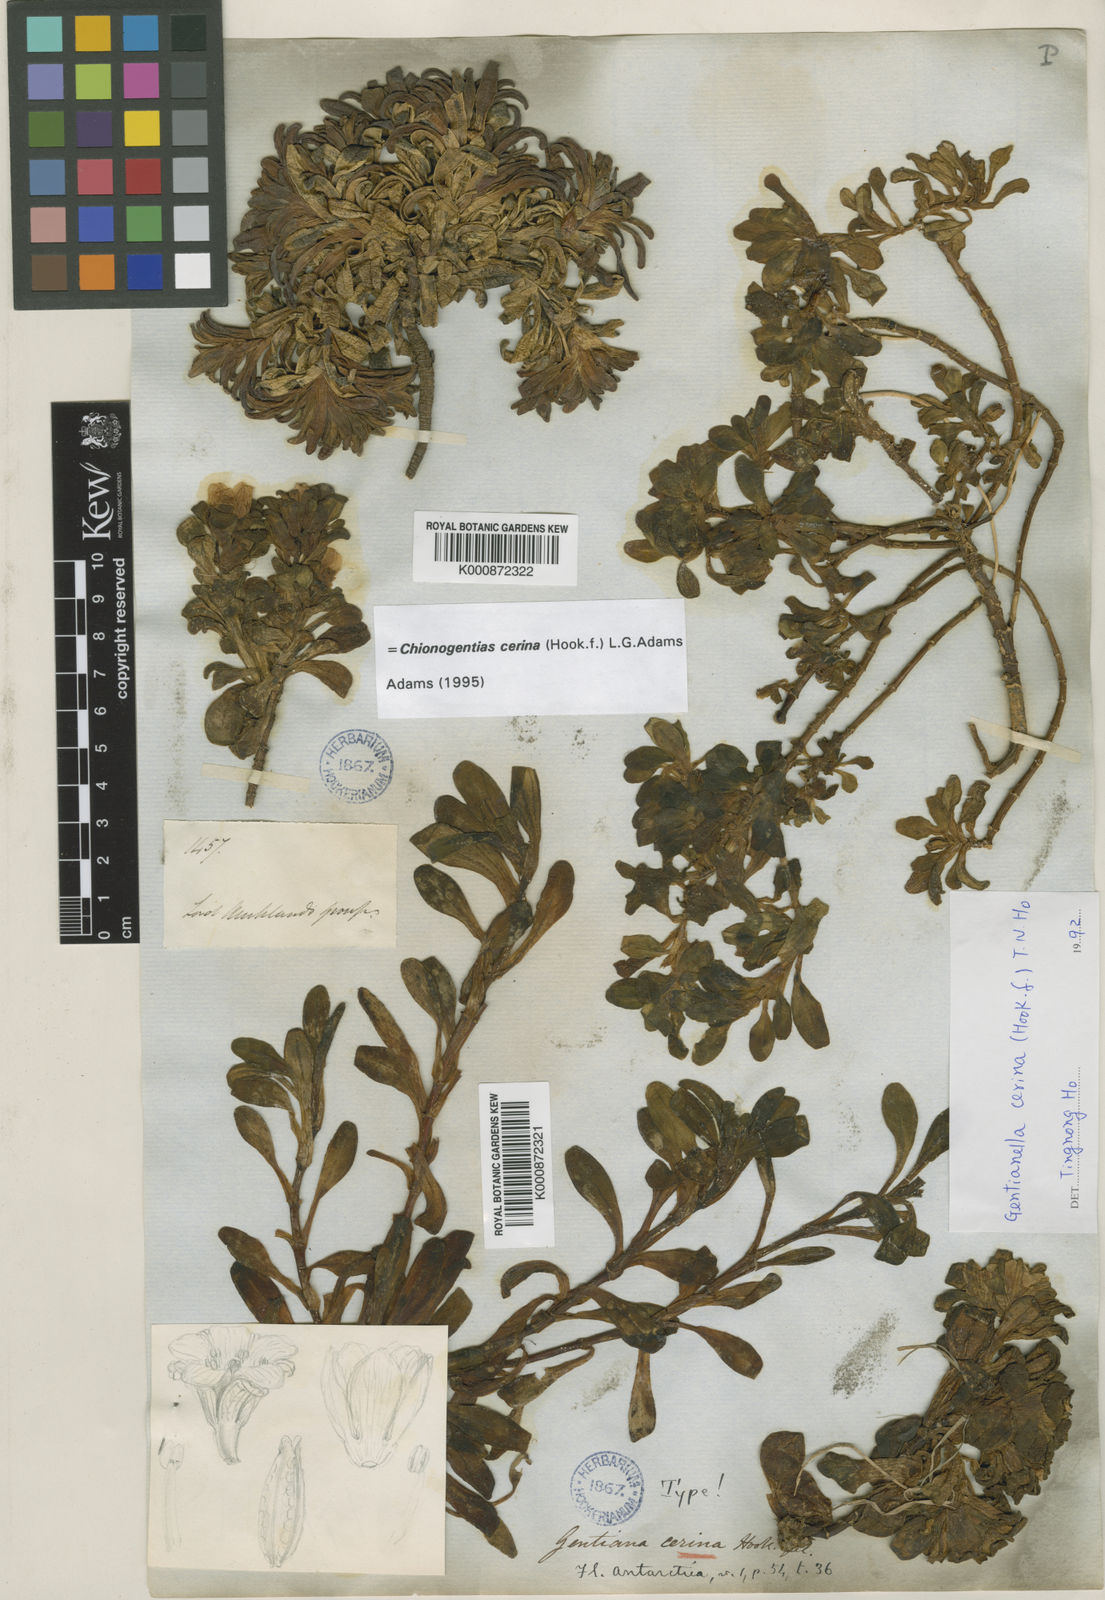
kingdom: Plantae
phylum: Tracheophyta
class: Magnoliopsida
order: Gentianales
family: Gentianaceae
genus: Gentianella
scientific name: Gentianella cerina
